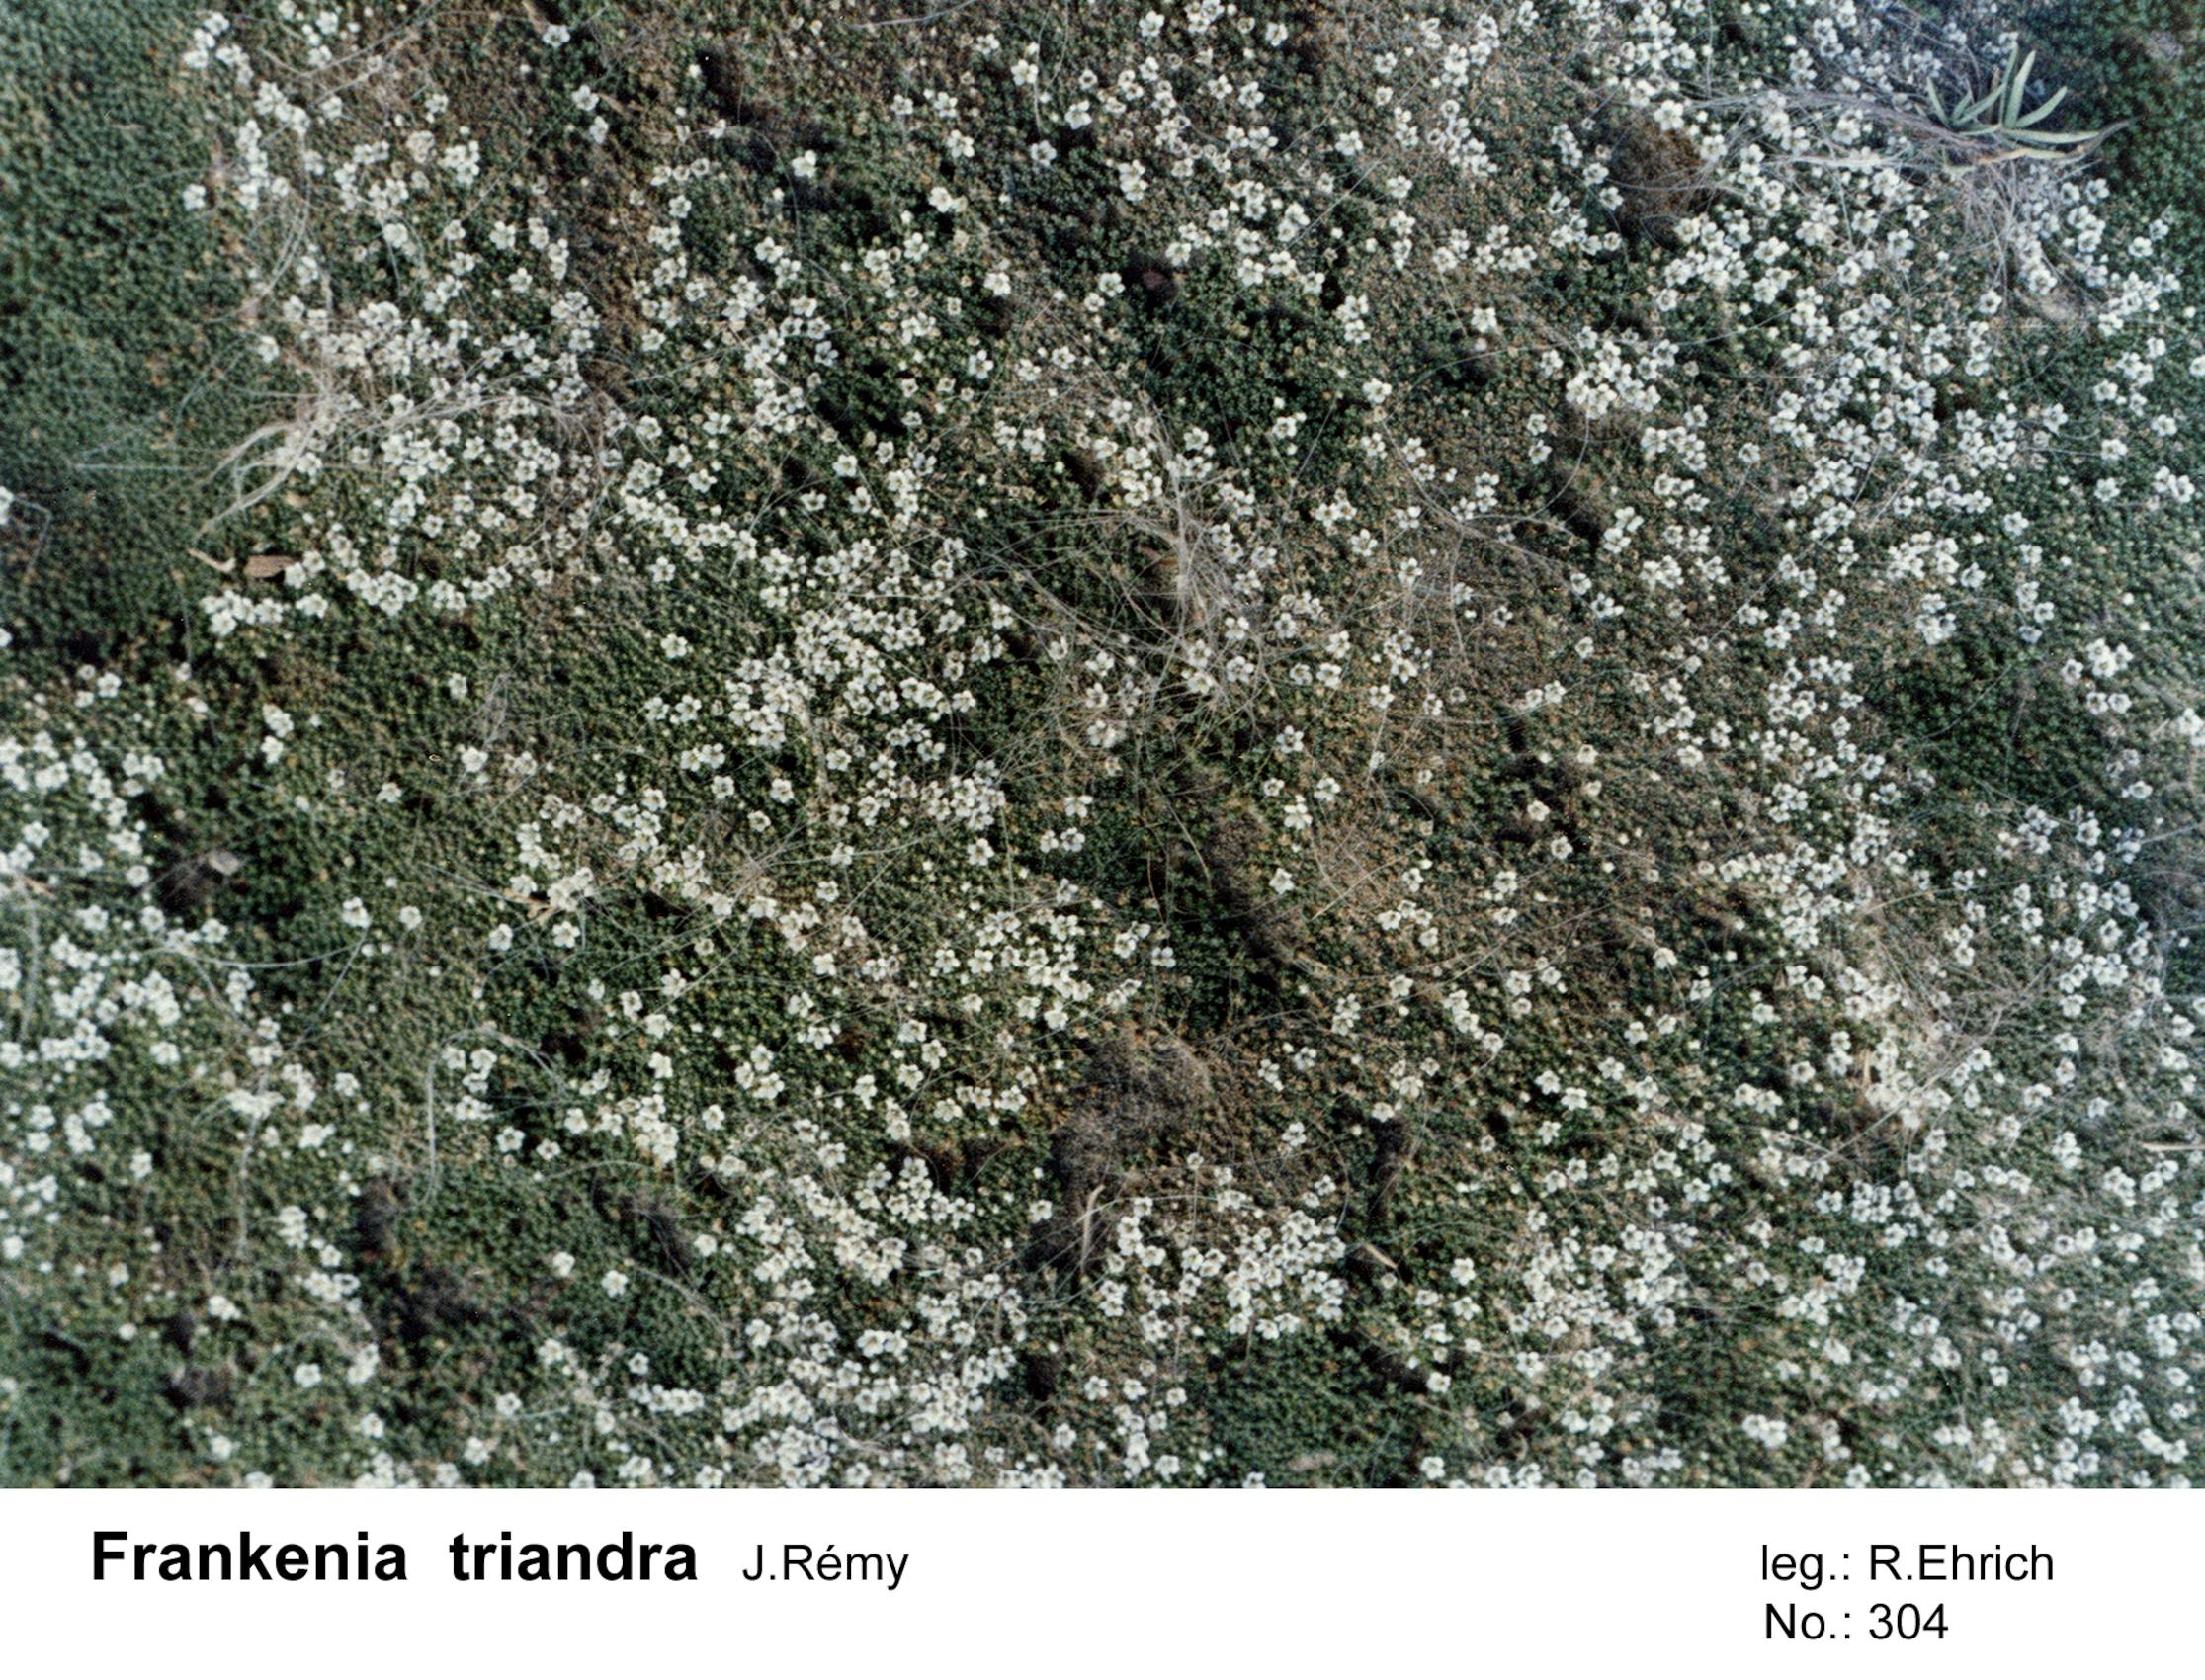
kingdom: Plantae
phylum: Tracheophyta
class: Magnoliopsida
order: Caryophyllales
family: Frankeniaceae
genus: Frankenia
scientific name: Frankenia triandra
